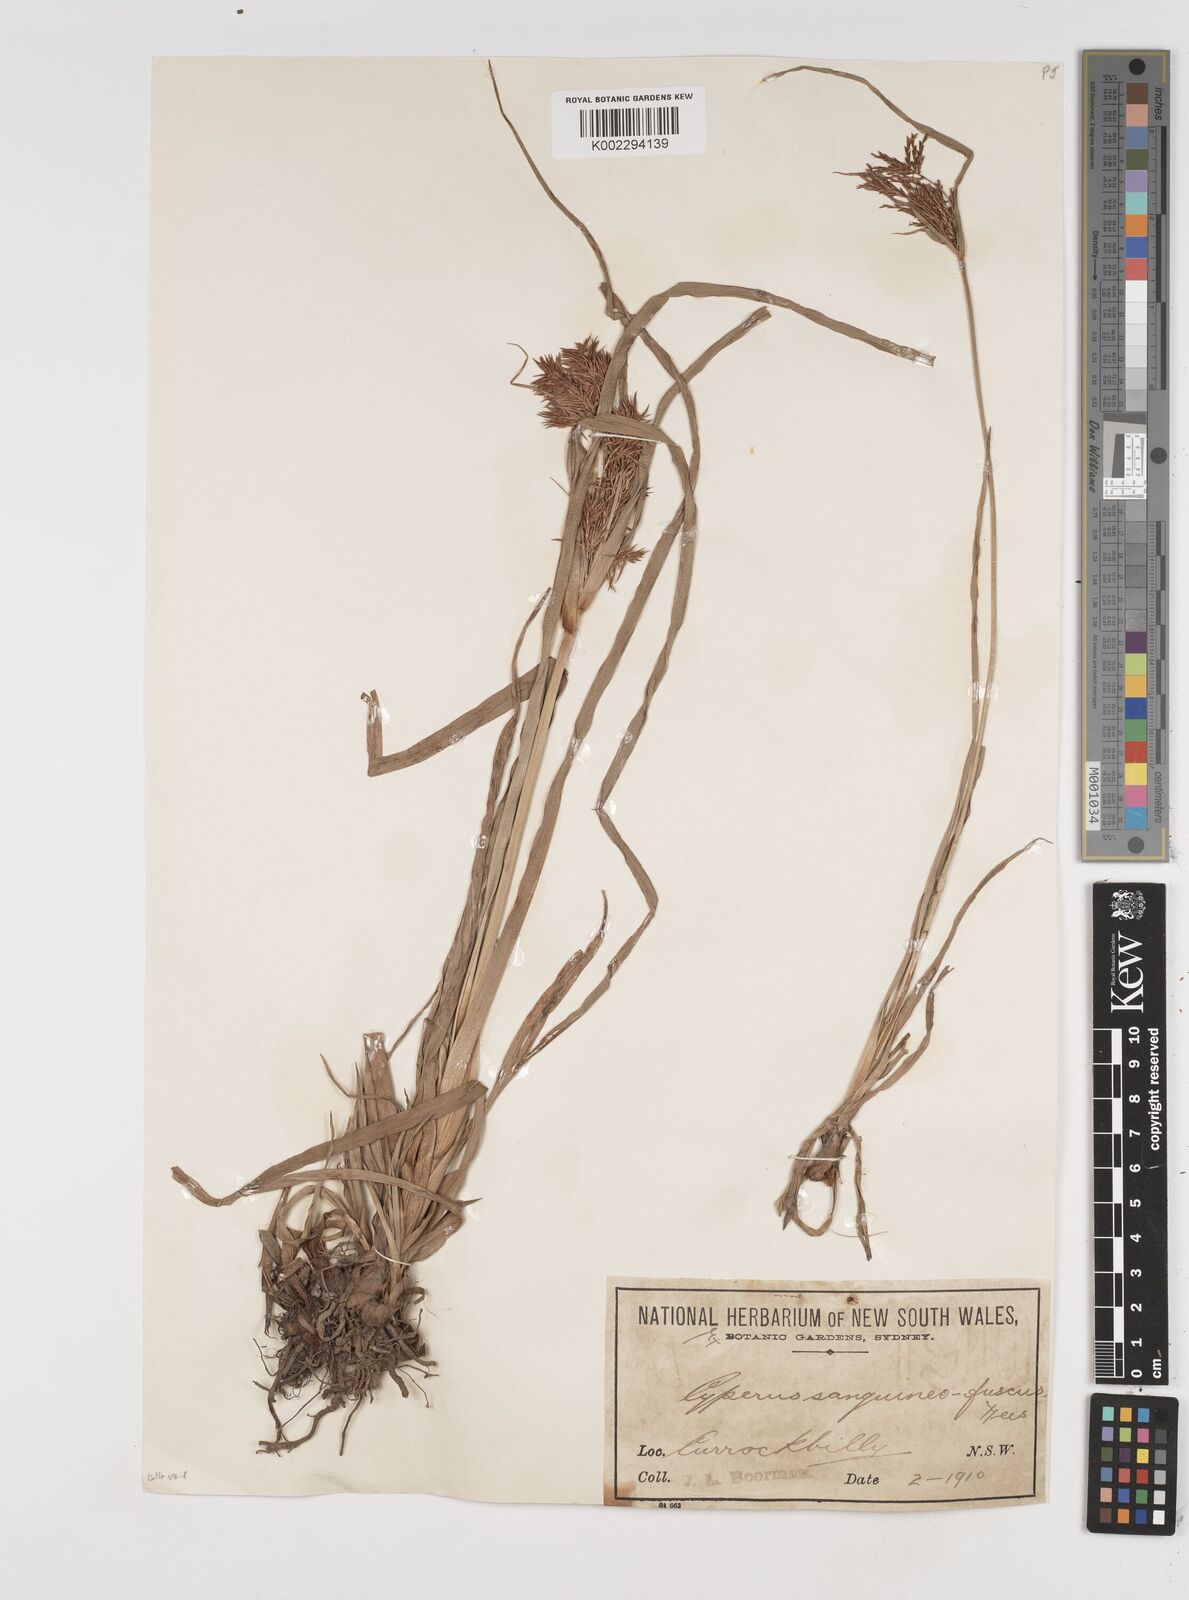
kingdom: Plantae
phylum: Tracheophyta
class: Liliopsida
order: Poales
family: Cyperaceae
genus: Cyperus
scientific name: Cyperus lucidus
